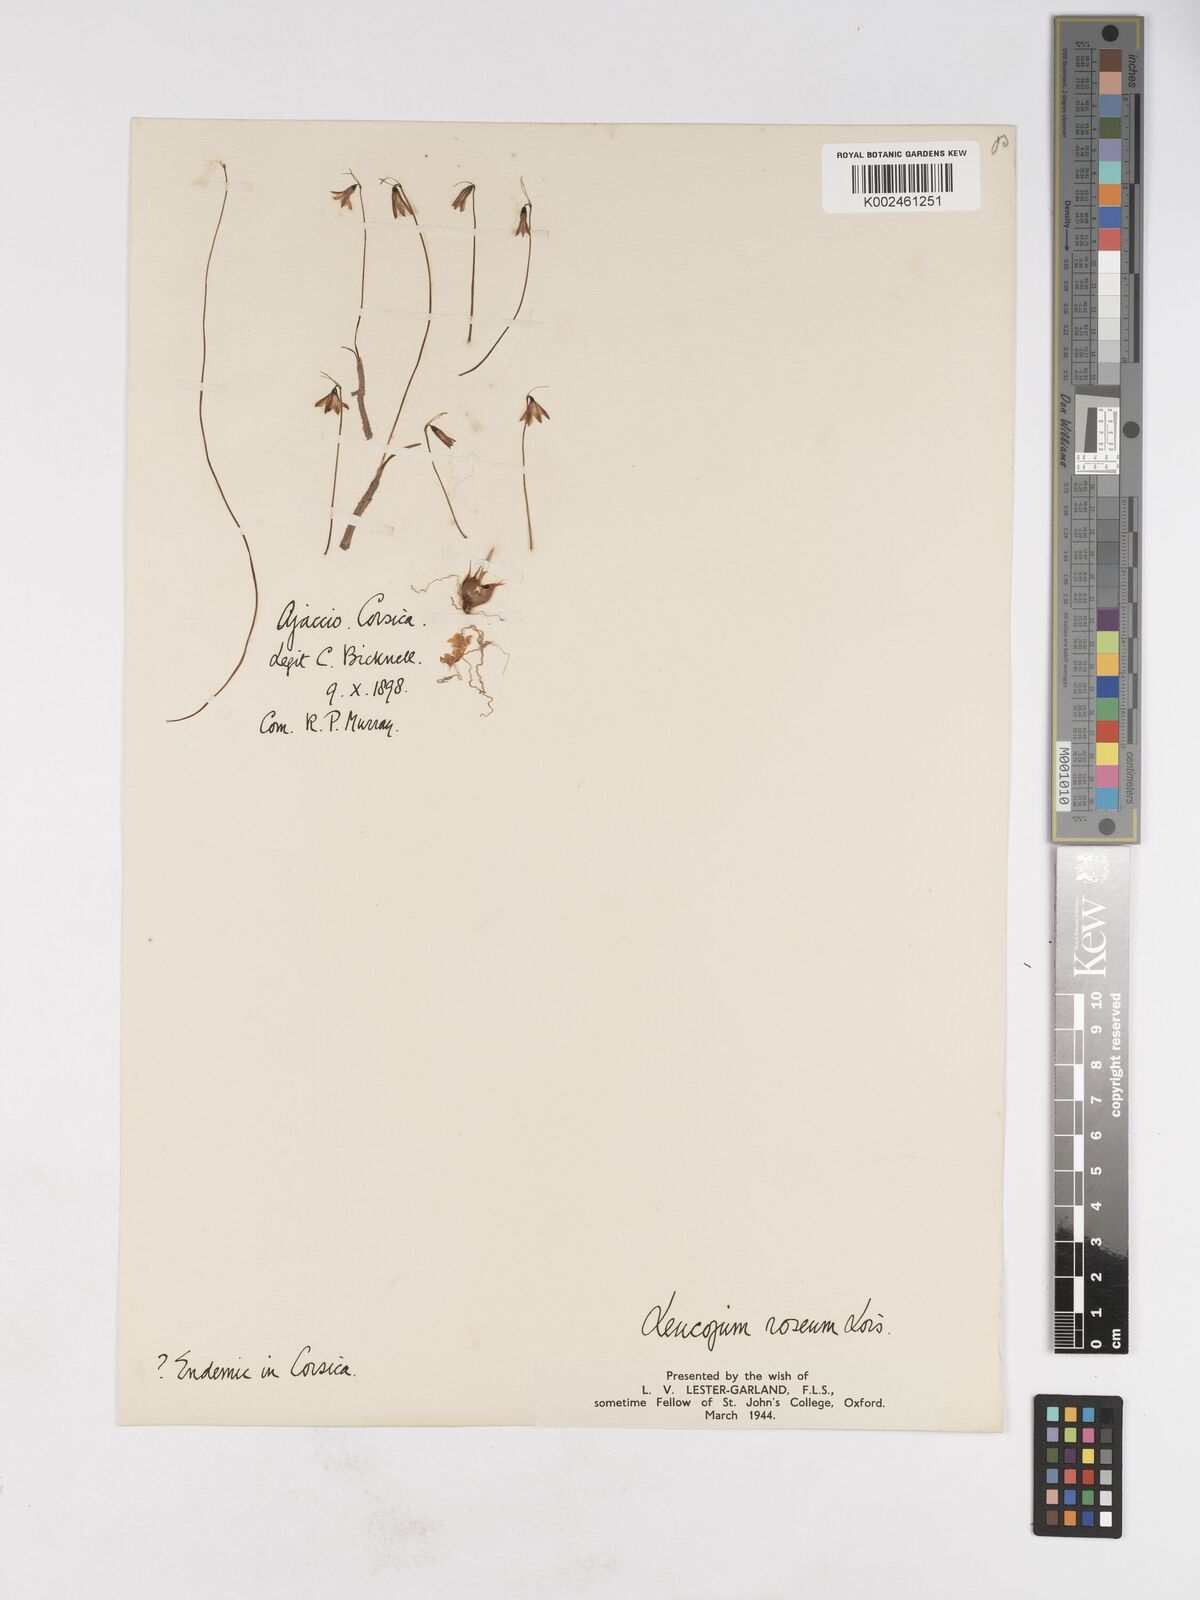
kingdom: Plantae
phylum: Tracheophyta
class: Liliopsida
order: Asparagales
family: Amaryllidaceae
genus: Acis
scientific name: Acis rosea
